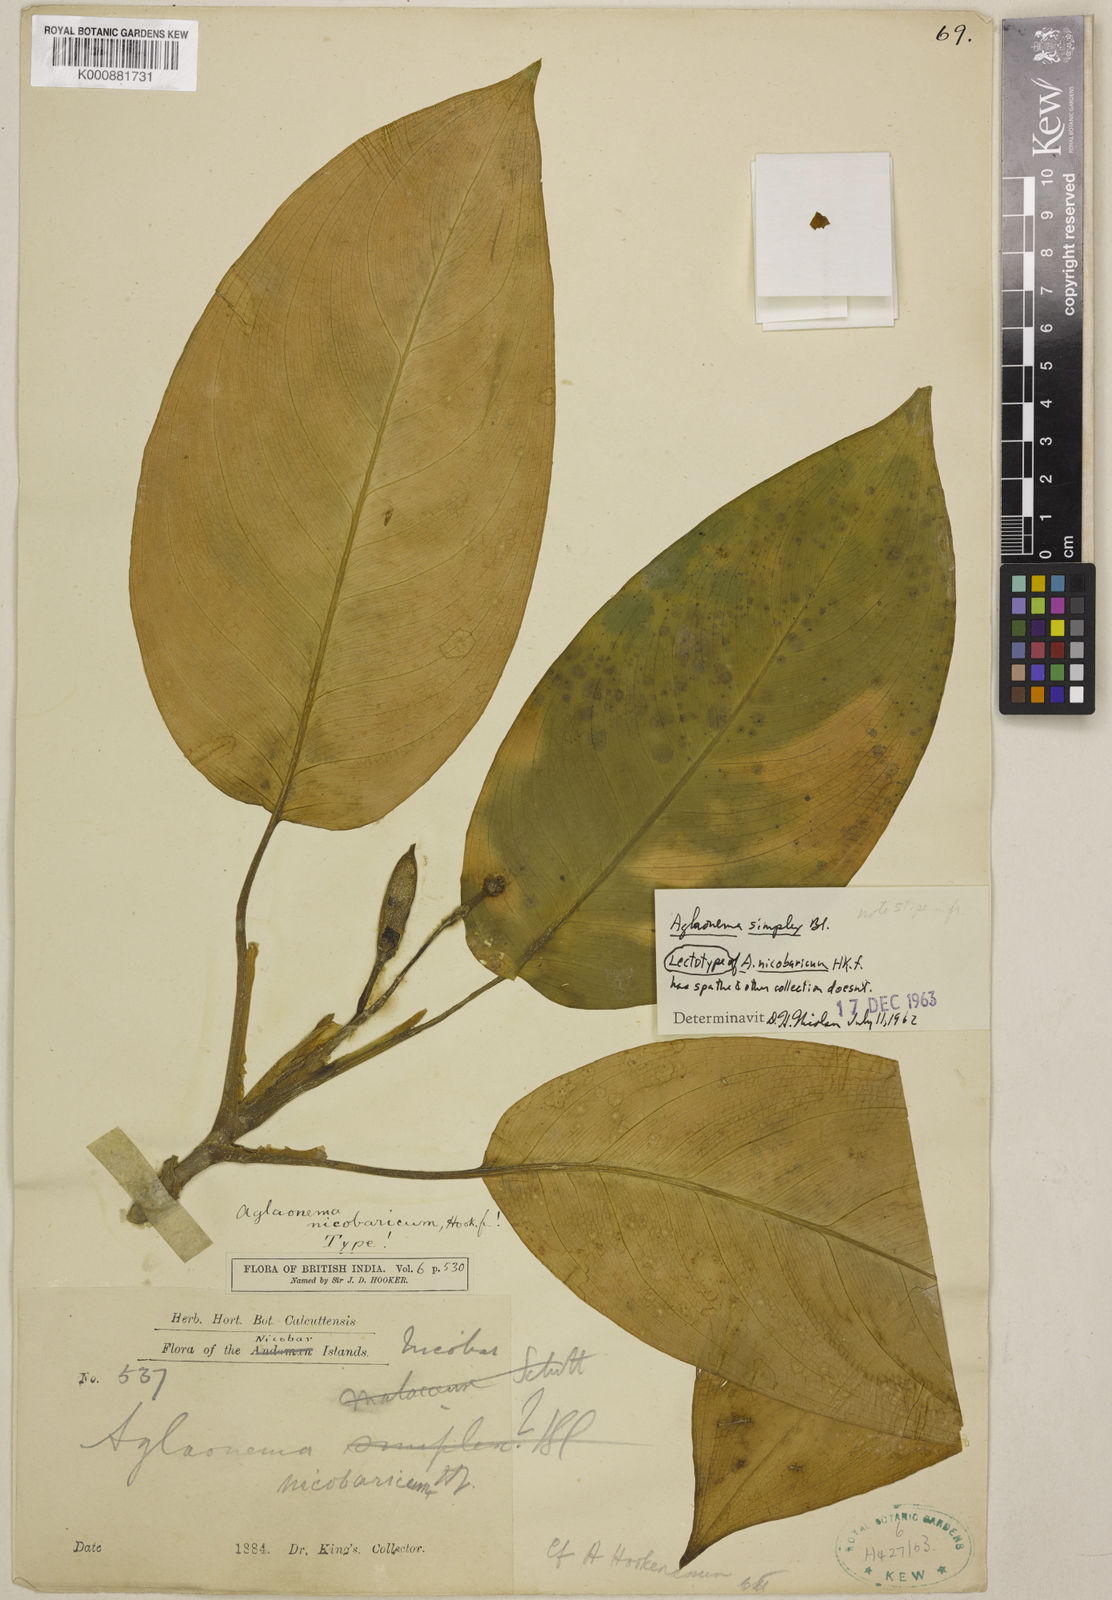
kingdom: Plantae
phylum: Tracheophyta
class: Liliopsida
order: Alismatales
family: Araceae
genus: Aglaonema
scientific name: Aglaonema simplex
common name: Malayan-sword
